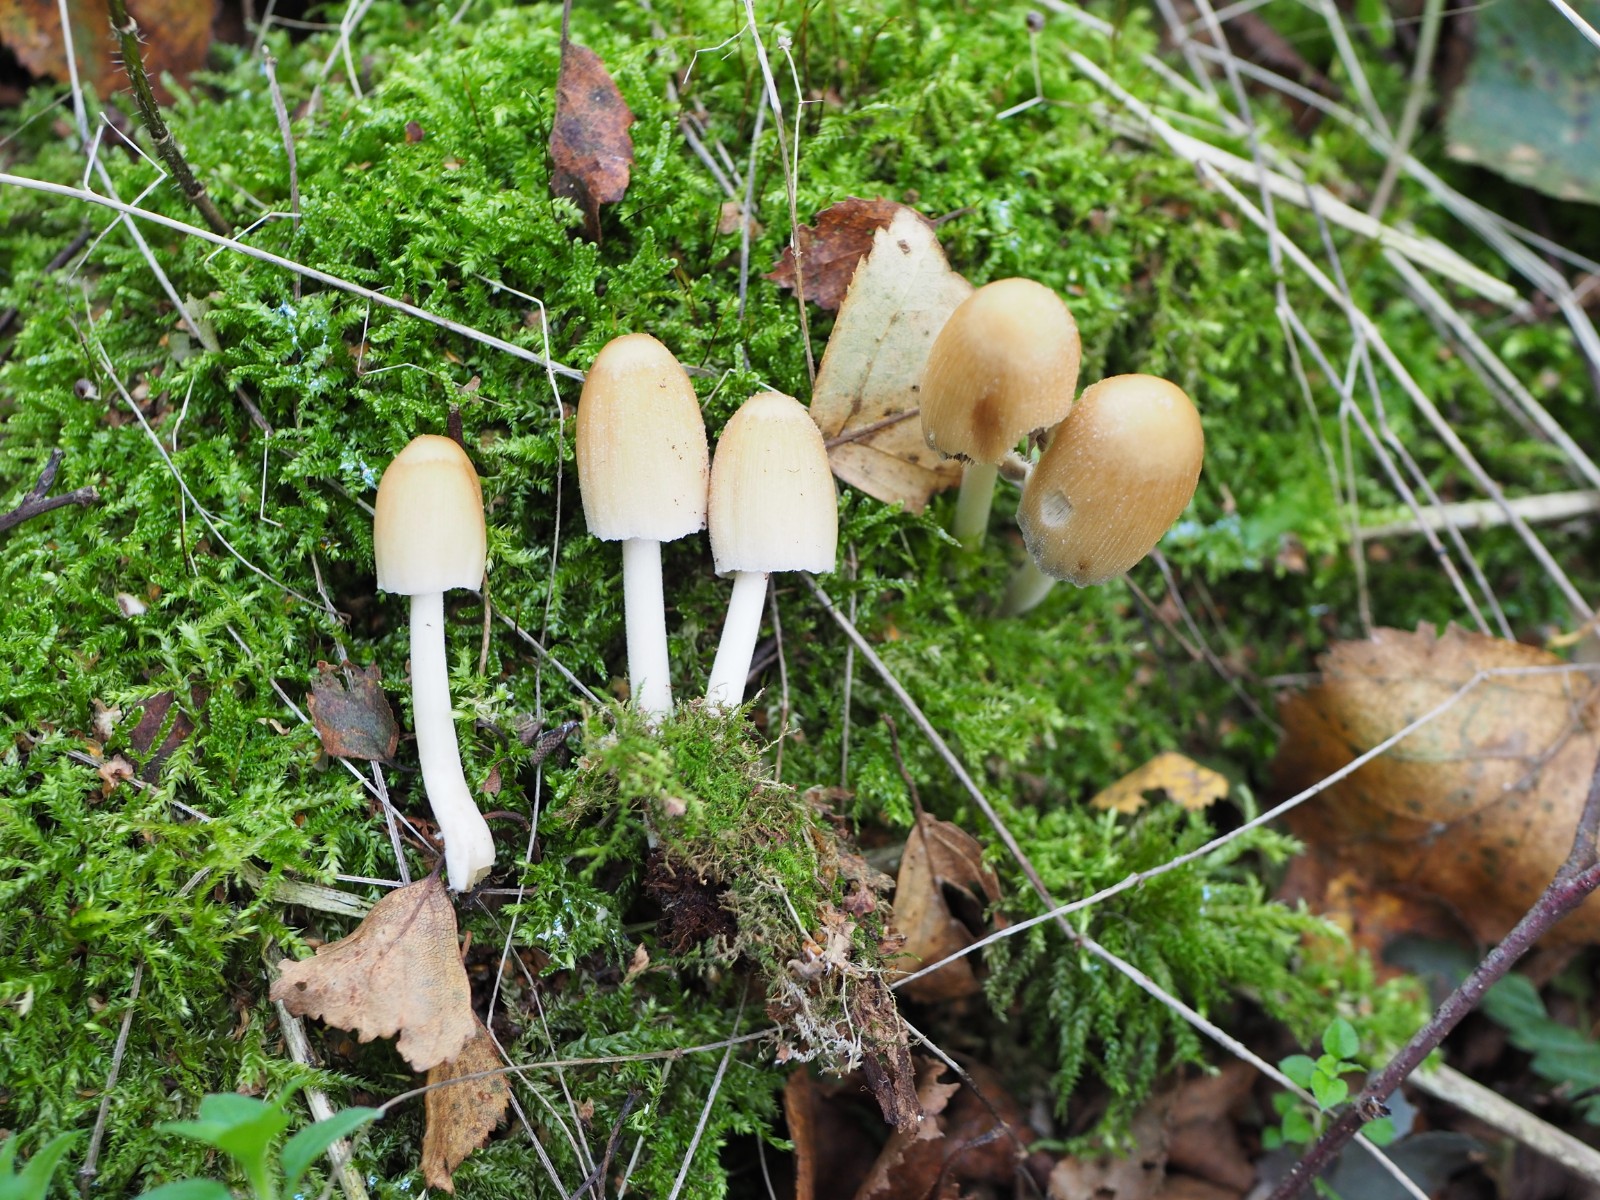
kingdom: Fungi
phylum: Basidiomycota
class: Agaricomycetes
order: Agaricales
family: Psathyrellaceae
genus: Coprinellus
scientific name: Coprinellus micaceus
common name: glimmer-blækhat
